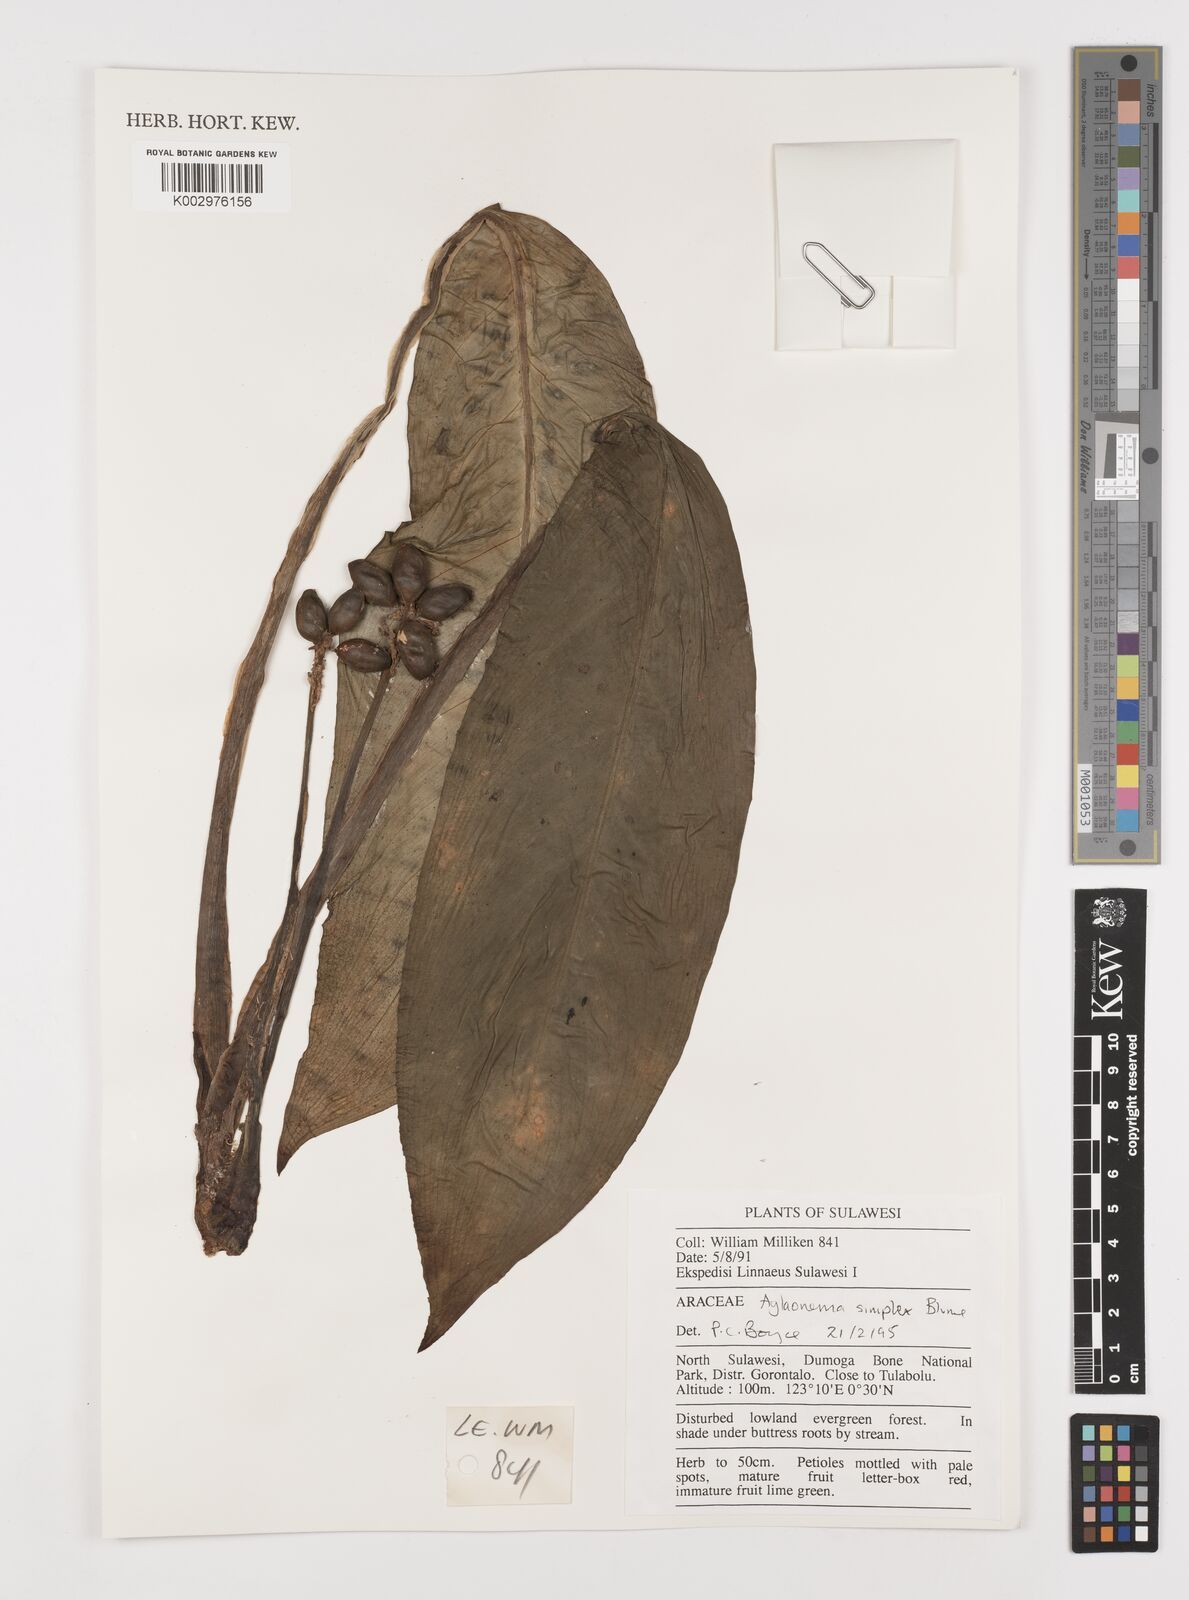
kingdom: Plantae
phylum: Tracheophyta
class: Liliopsida
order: Alismatales
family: Araceae
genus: Aglaonema
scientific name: Aglaonema simplex
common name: Malayan-sword
